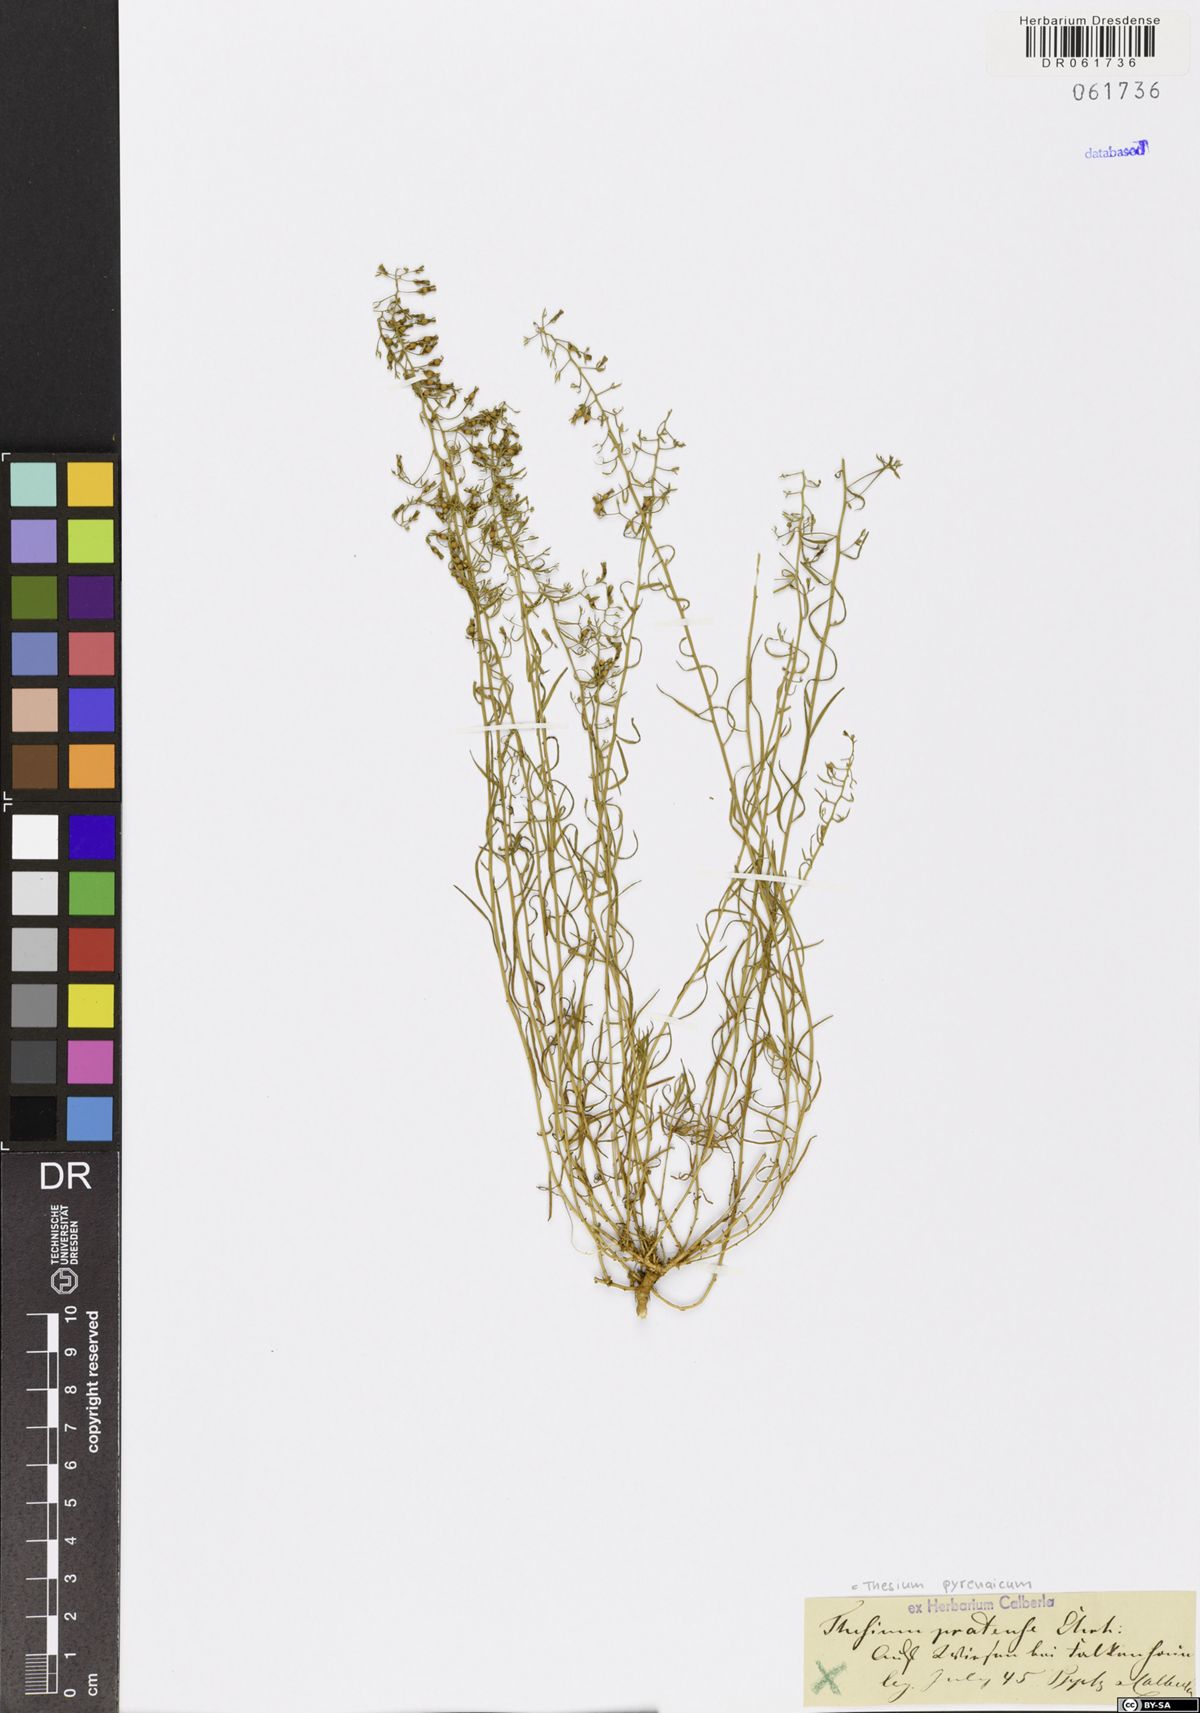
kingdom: Plantae
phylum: Tracheophyta
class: Magnoliopsida
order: Santalales
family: Thesiaceae
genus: Thesium
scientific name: Thesium pyrenaicum
